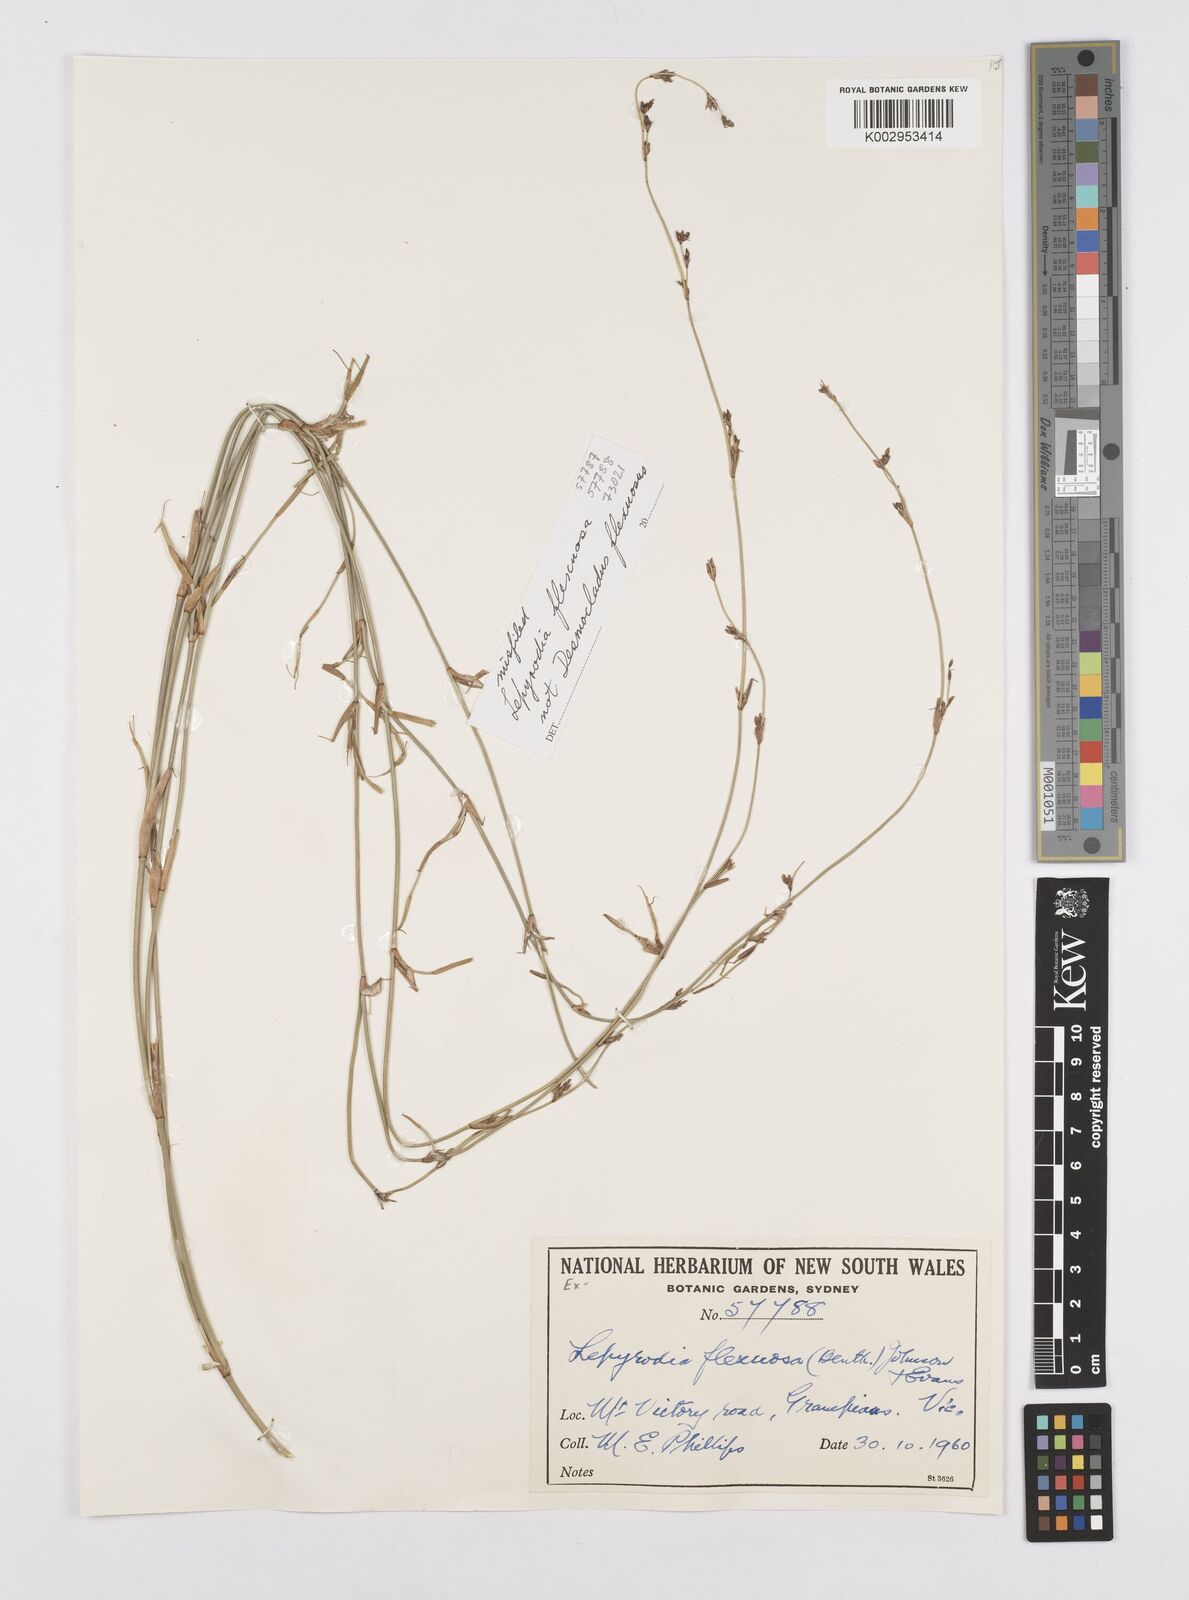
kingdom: Plantae
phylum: Tracheophyta
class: Liliopsida
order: Poales
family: Restionaceae
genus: Lepyrodia
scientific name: Lepyrodia flexuosa
